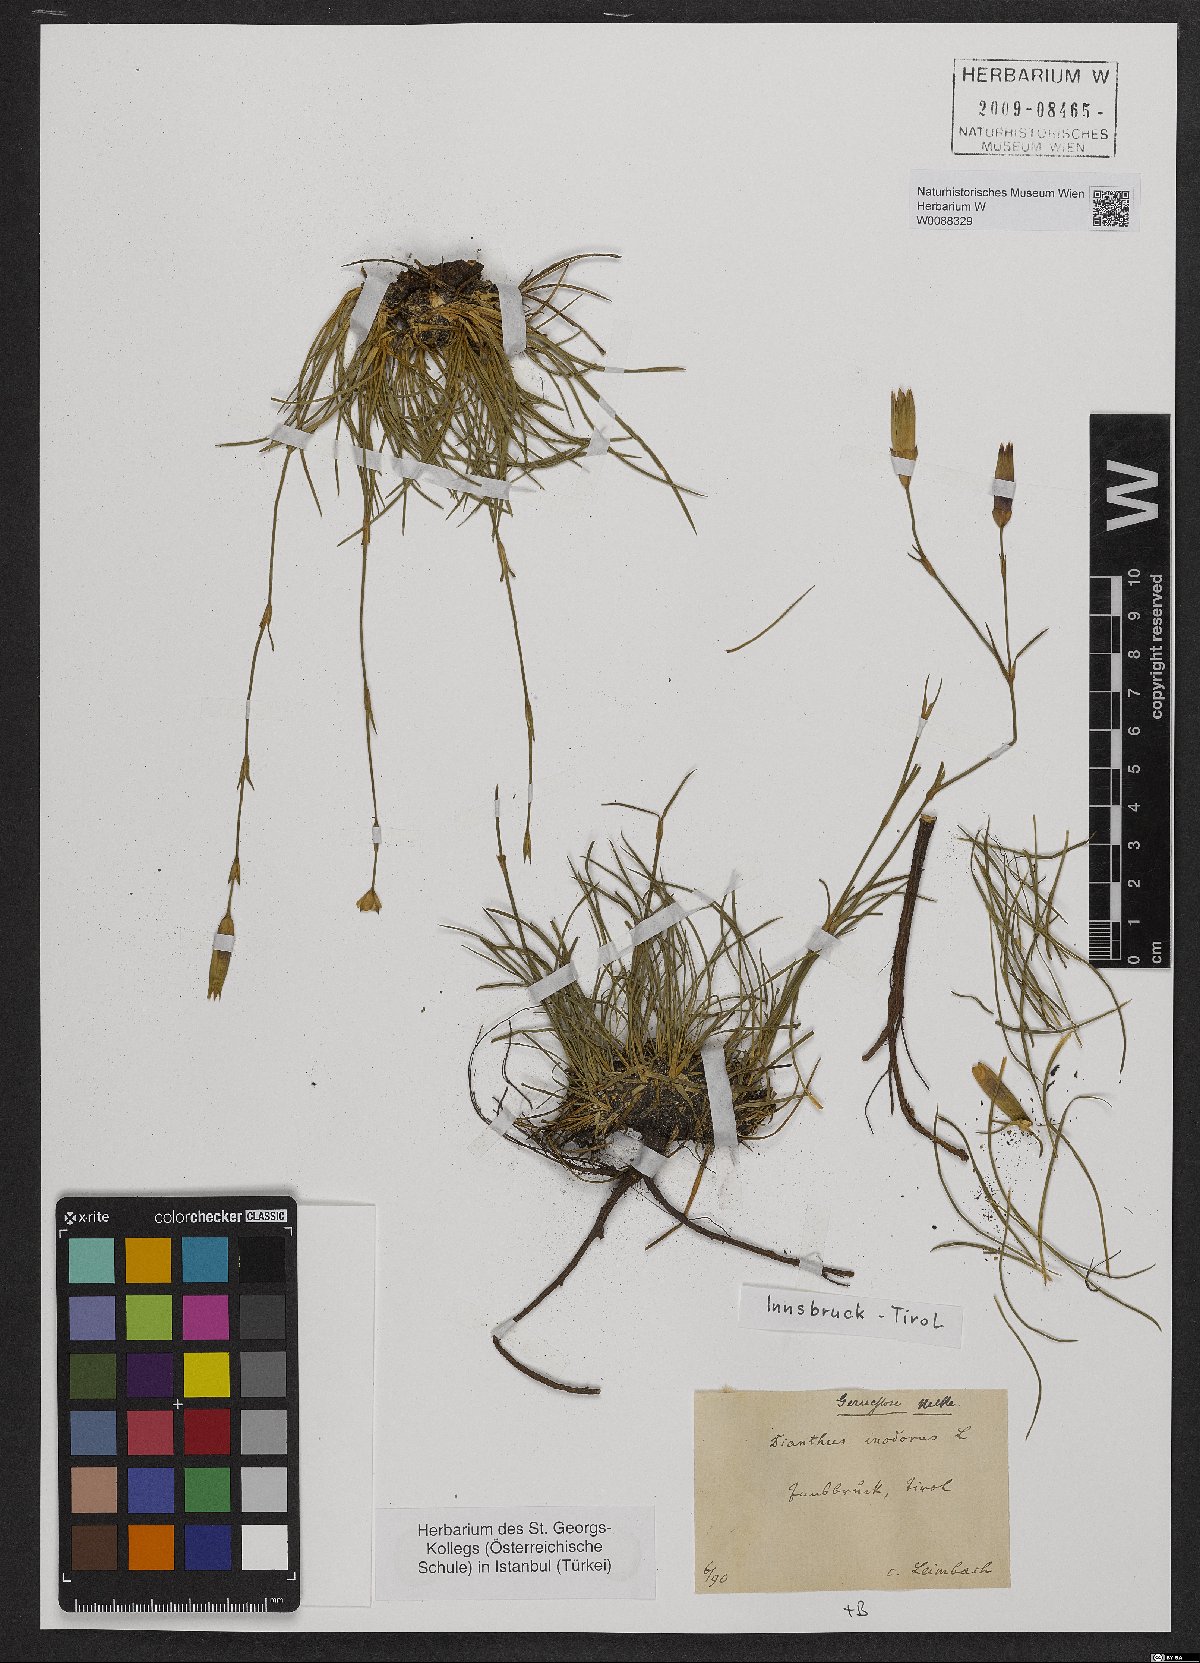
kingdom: Plantae
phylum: Tracheophyta
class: Magnoliopsida
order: Caryophyllales
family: Caryophyllaceae
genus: Dianthus
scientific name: Dianthus sylvestris
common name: Wood pink
